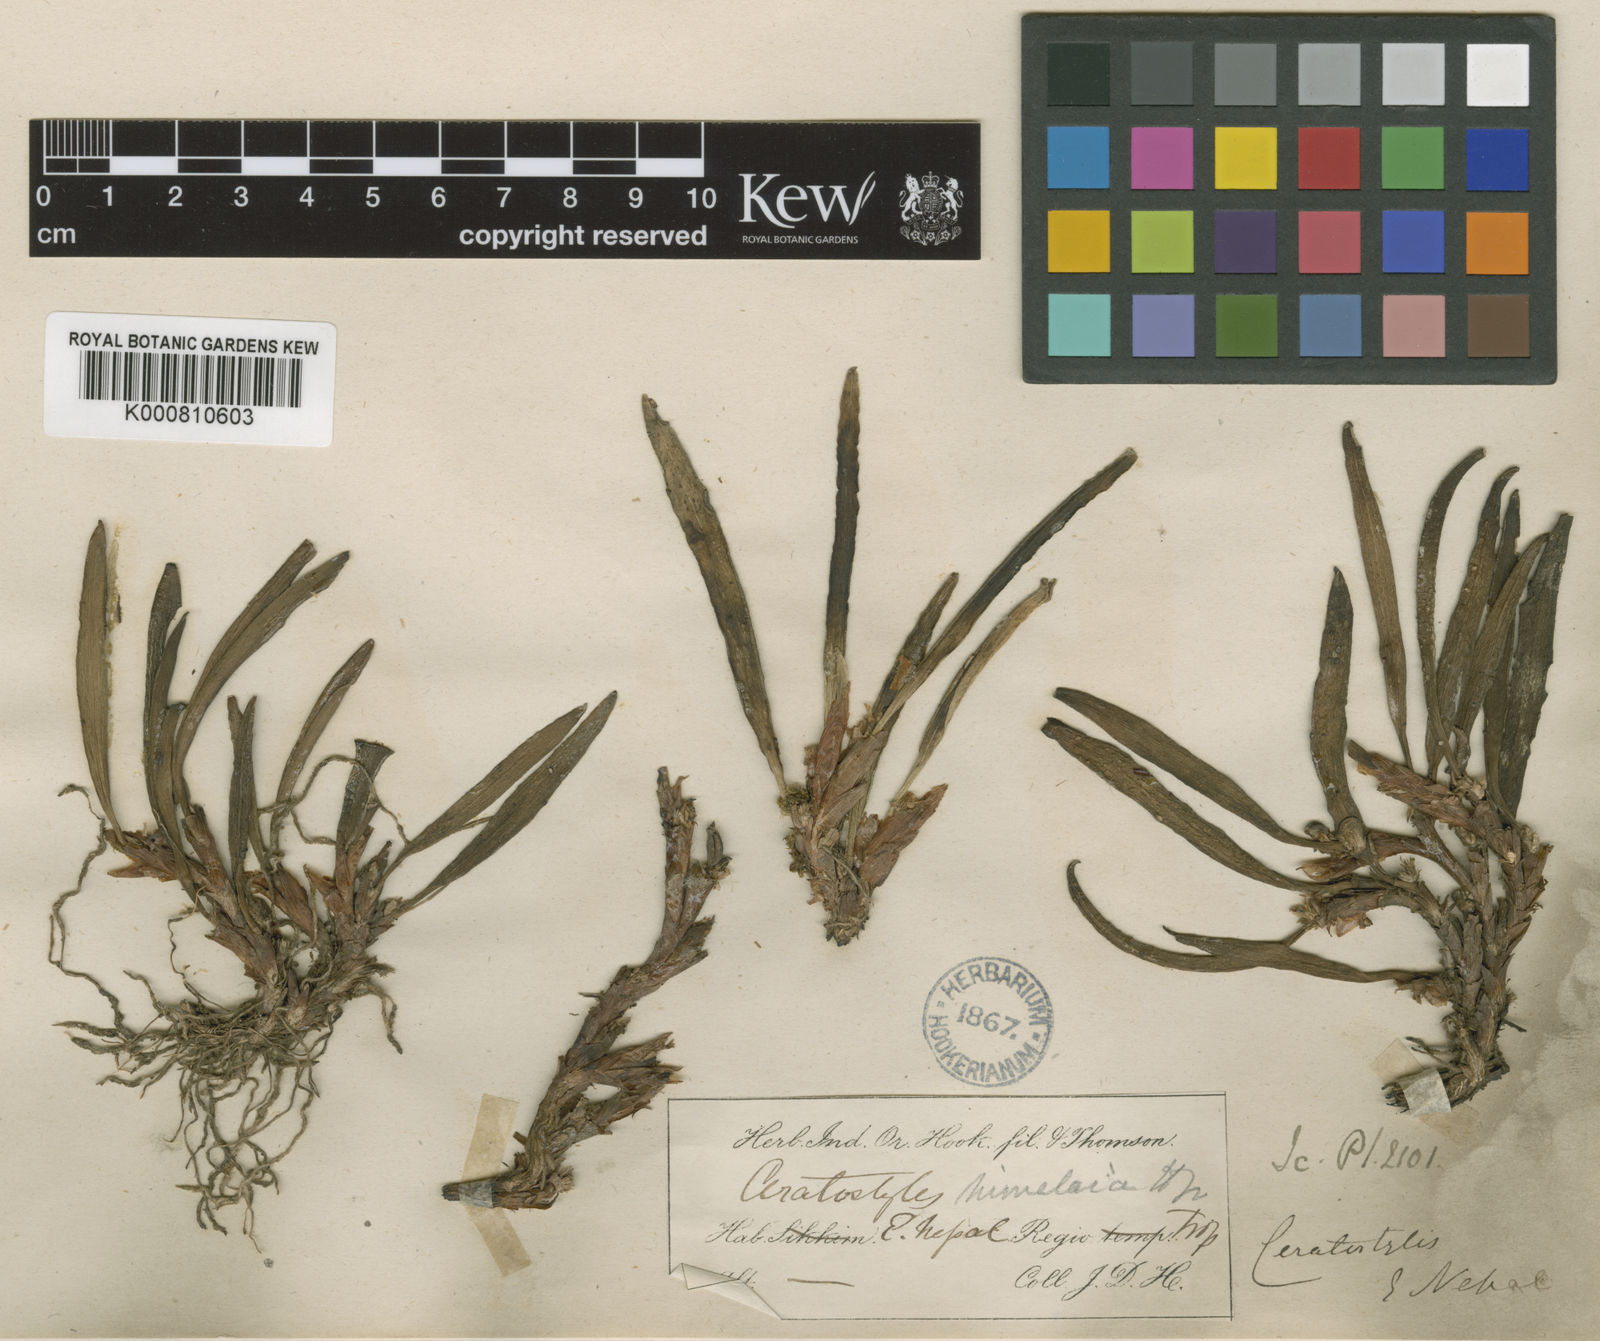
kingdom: Plantae
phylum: Tracheophyta
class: Liliopsida
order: Asparagales
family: Orchidaceae
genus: Ceratostylis
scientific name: Ceratostylis himalaica
